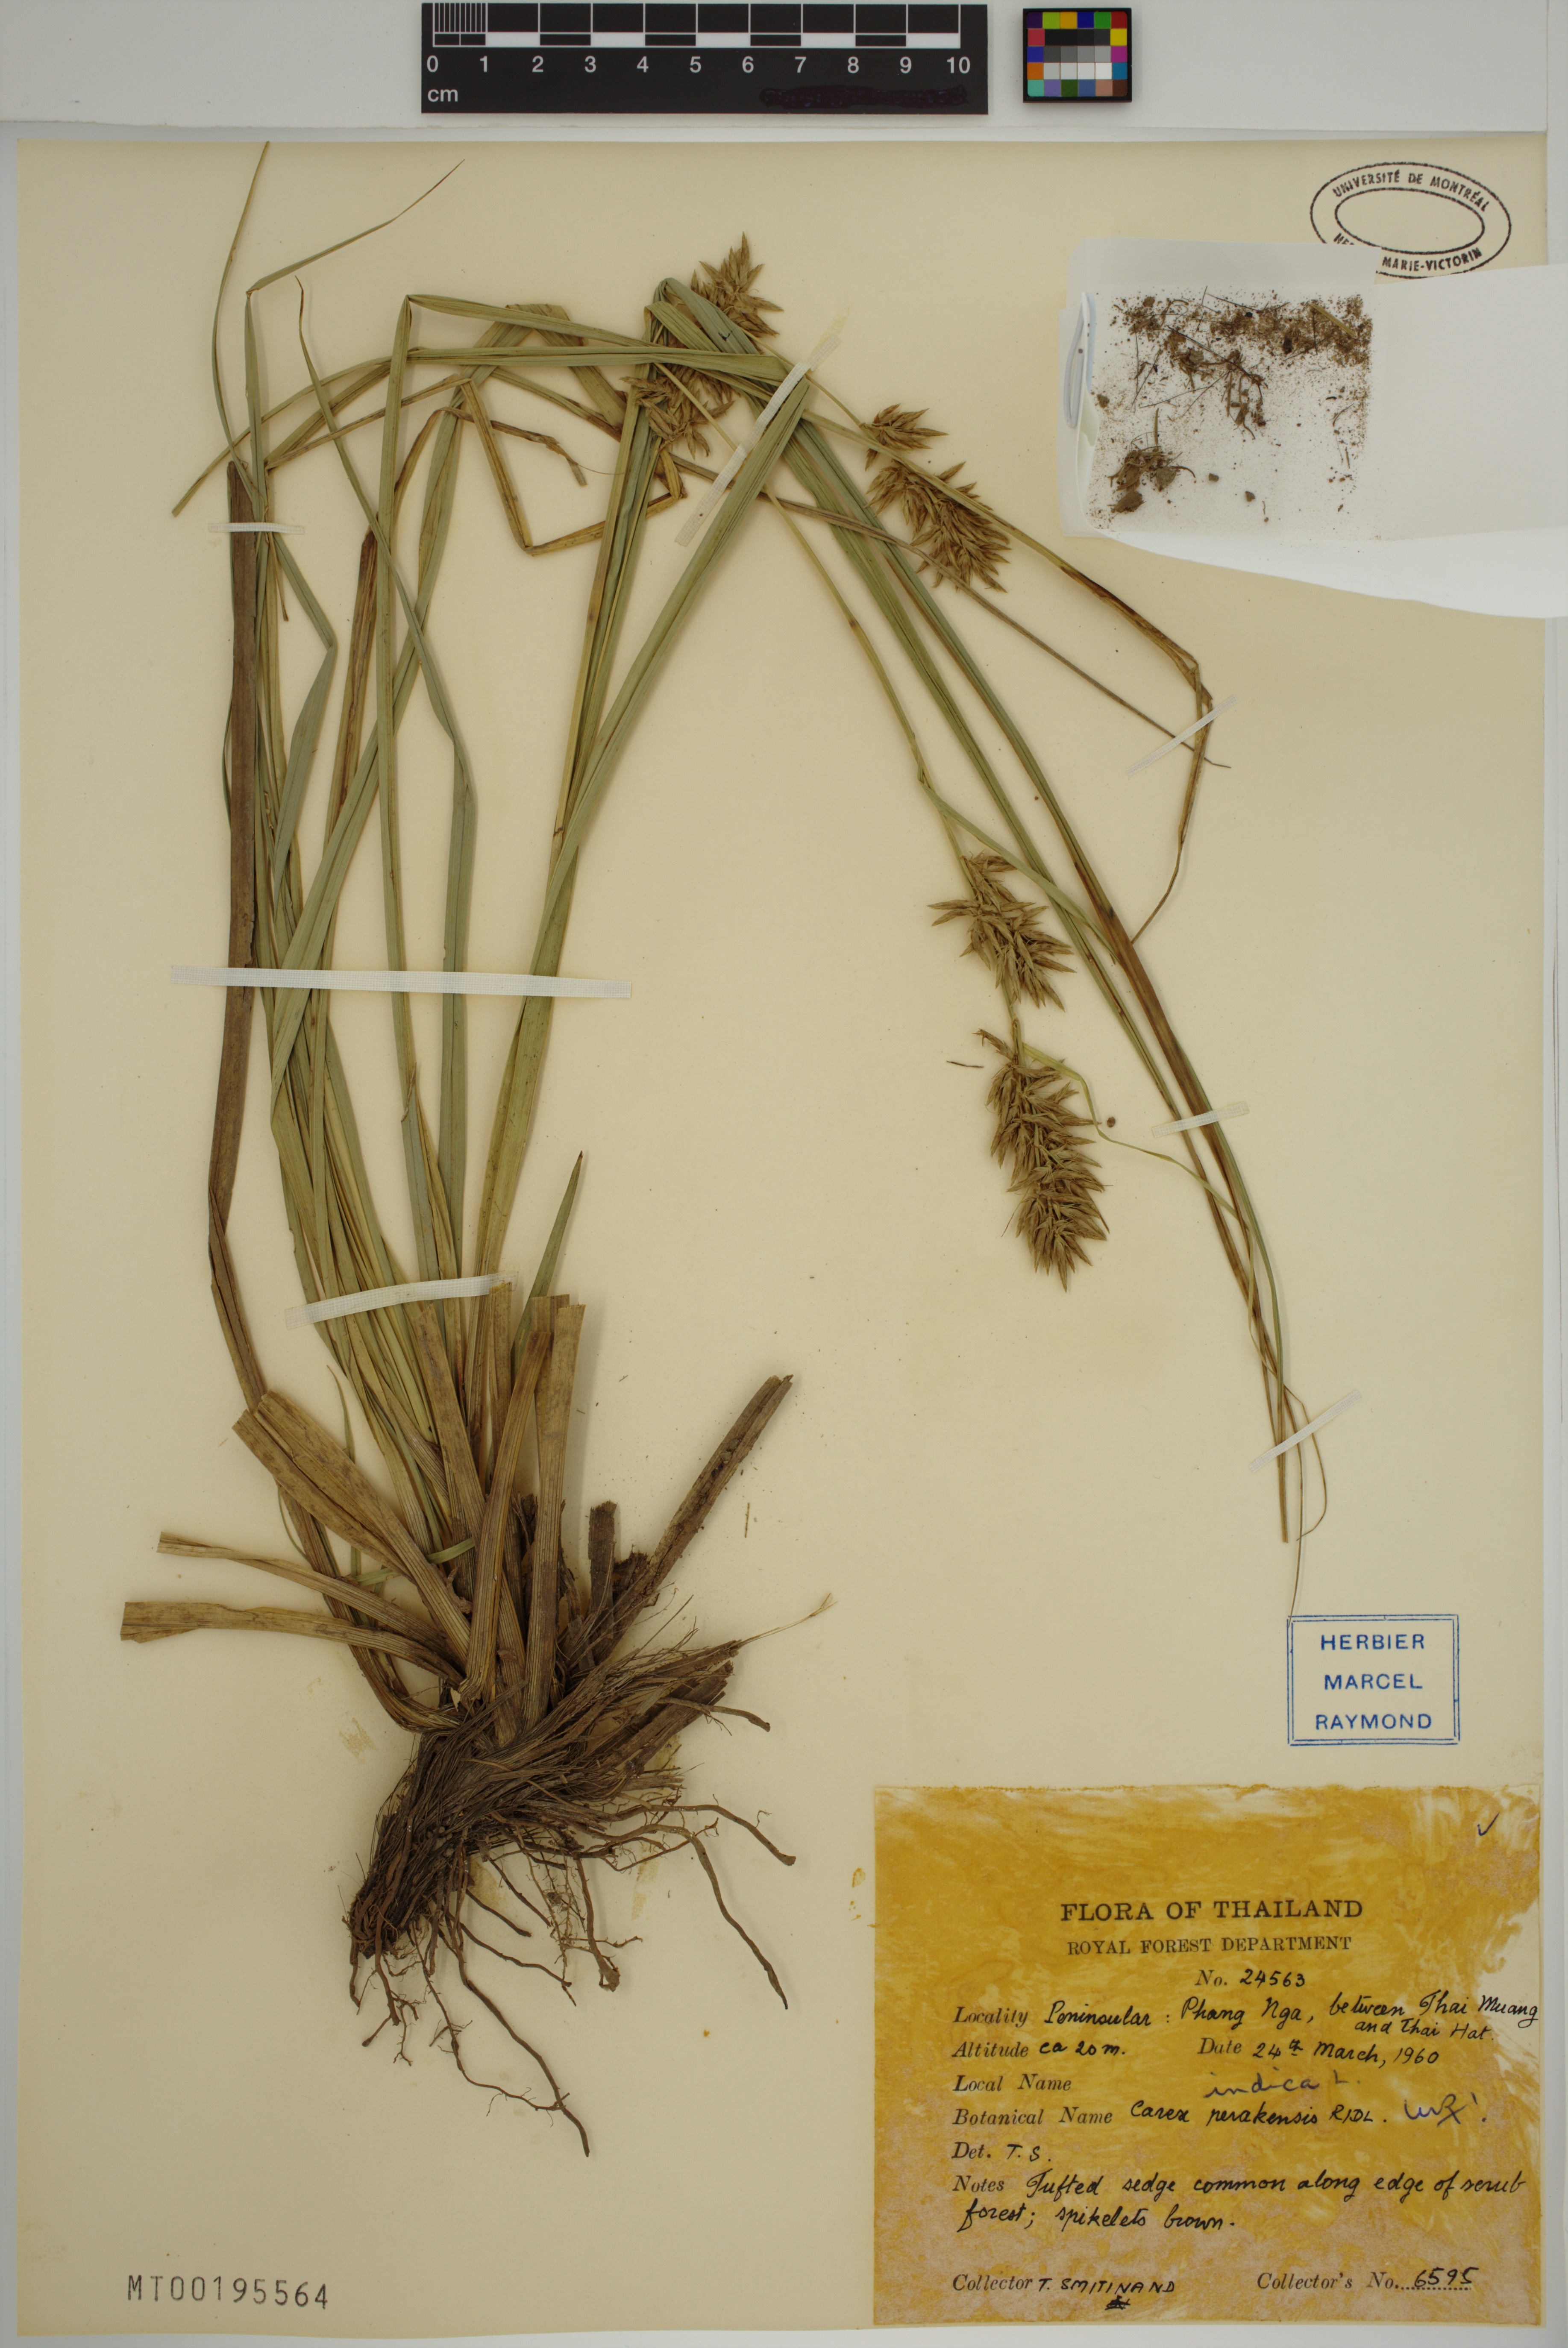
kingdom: Plantae
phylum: Tracheophyta
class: Liliopsida
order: Poales
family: Cyperaceae
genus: Carex
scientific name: Carex indica
